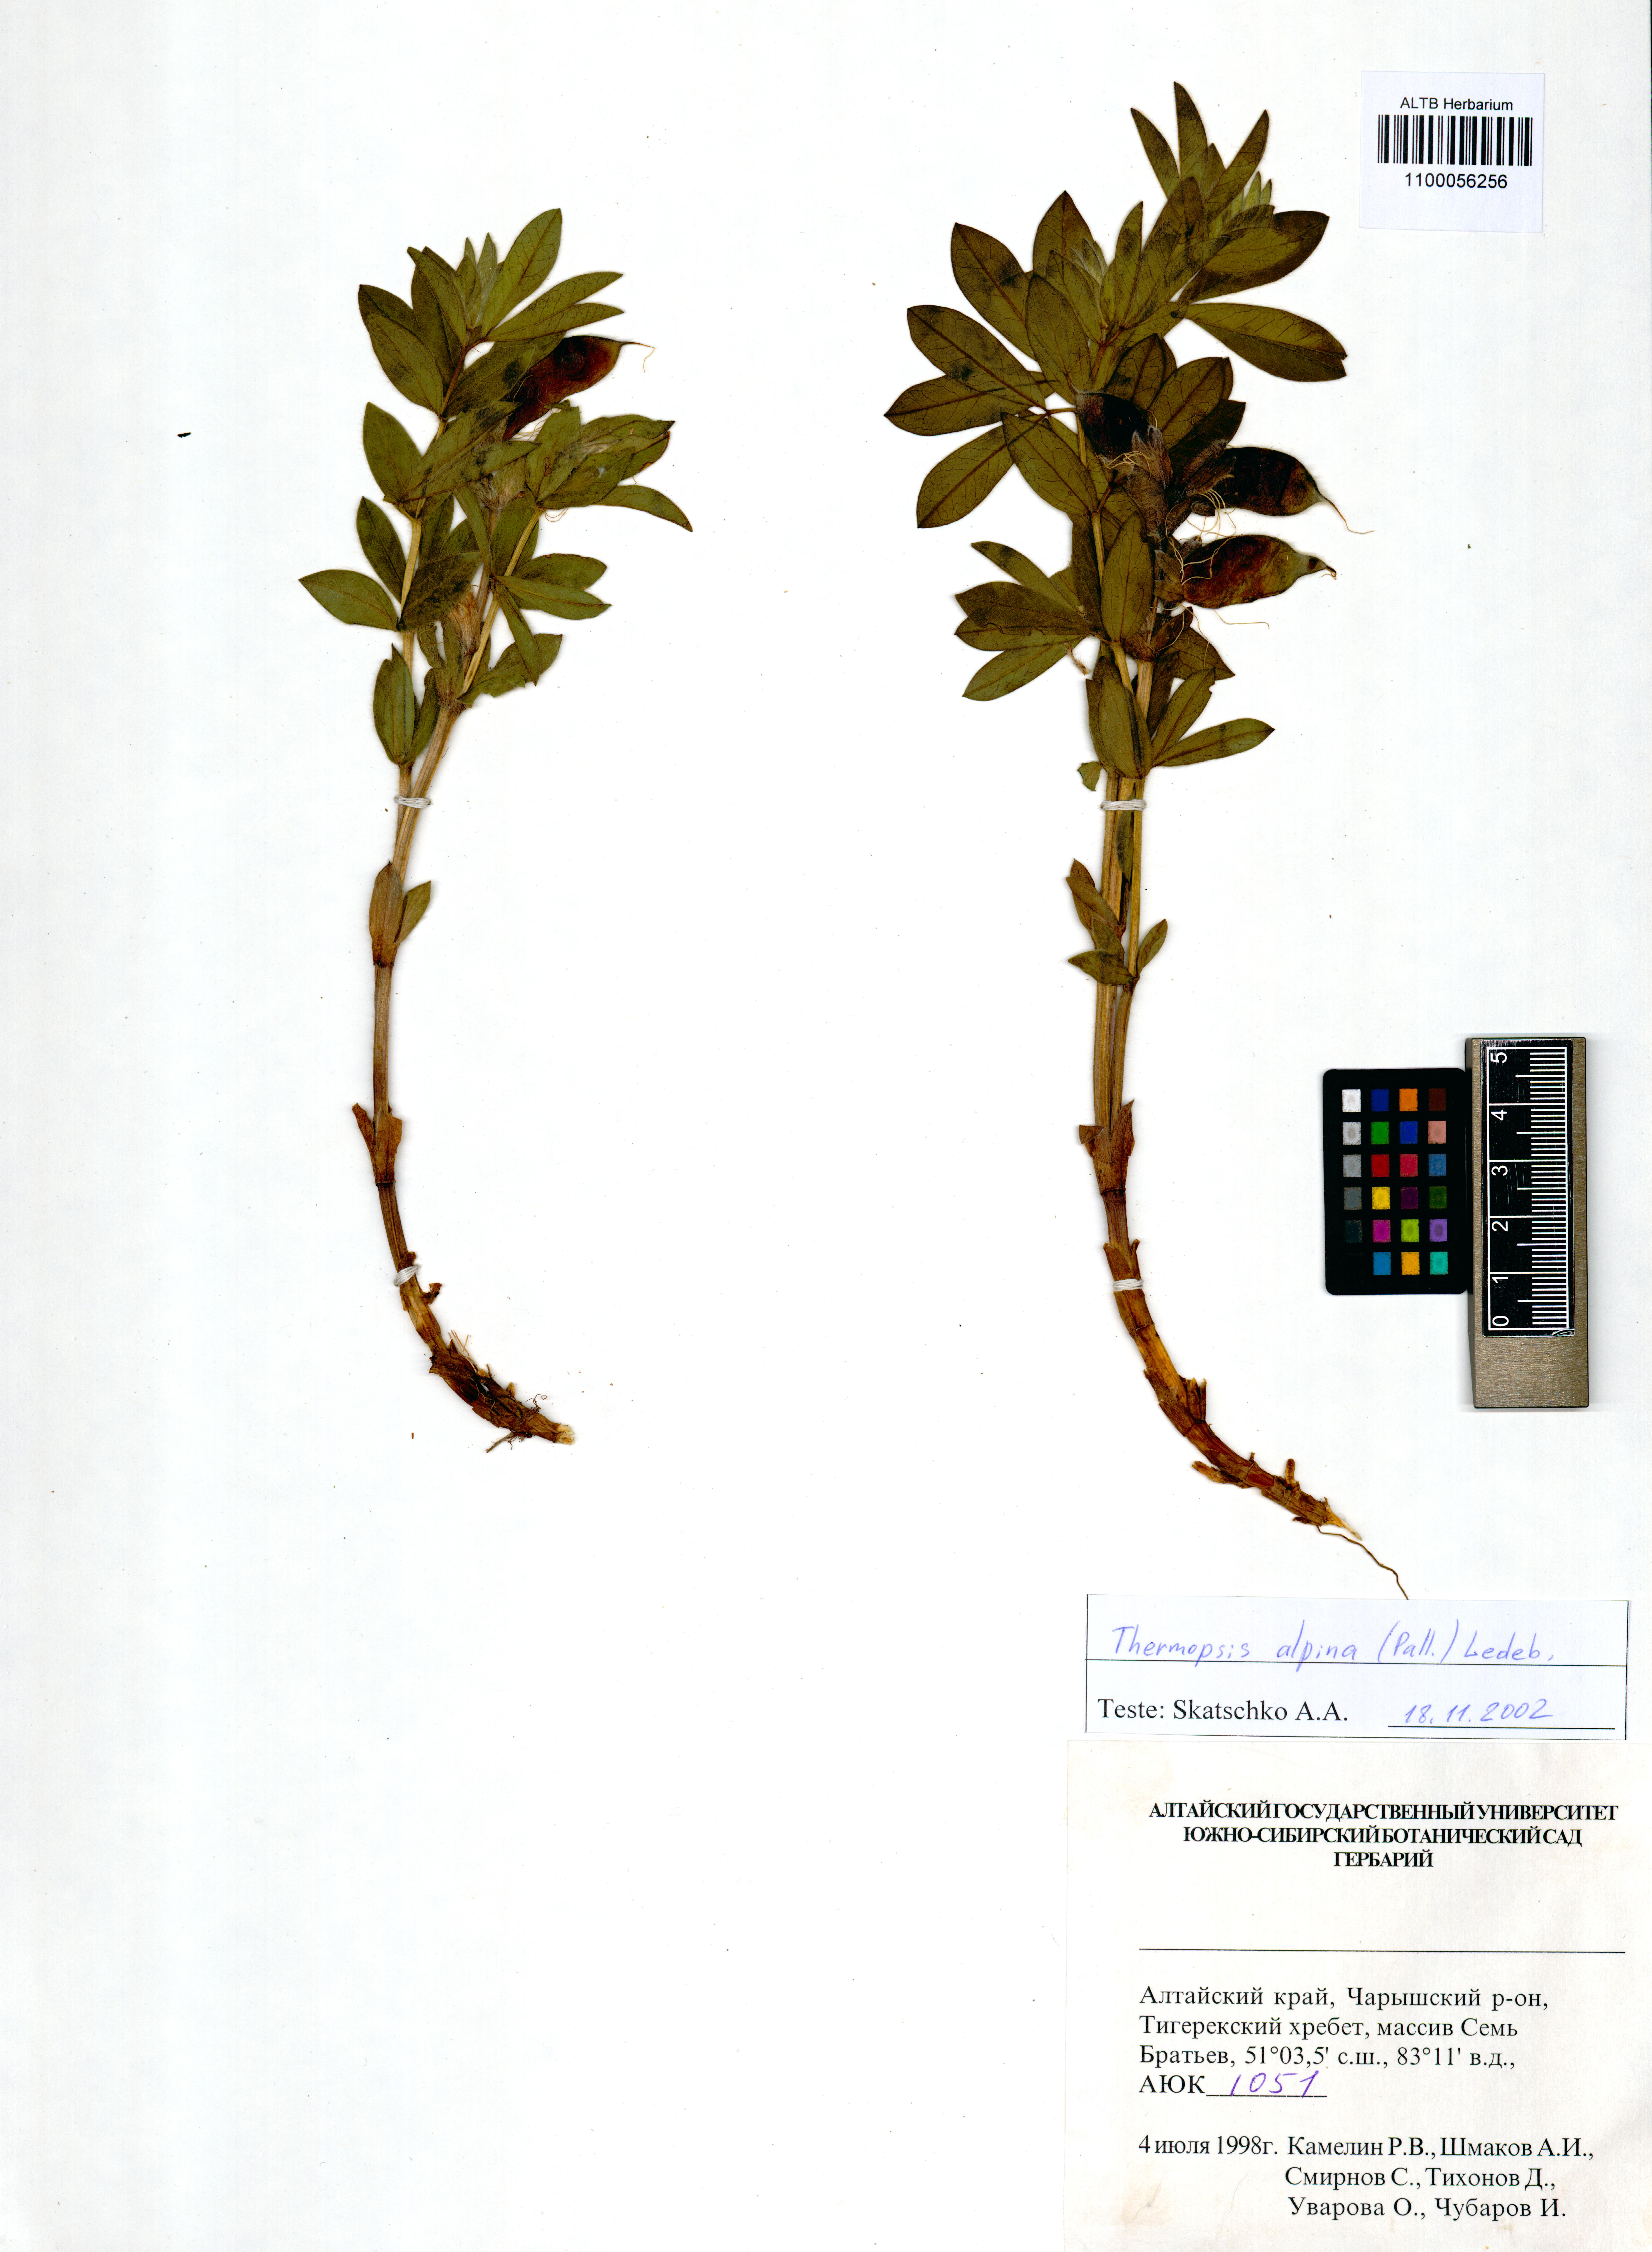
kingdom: Plantae
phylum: Tracheophyta
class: Magnoliopsida
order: Fabales
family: Fabaceae
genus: Thermopsis
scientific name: Thermopsis alpina
